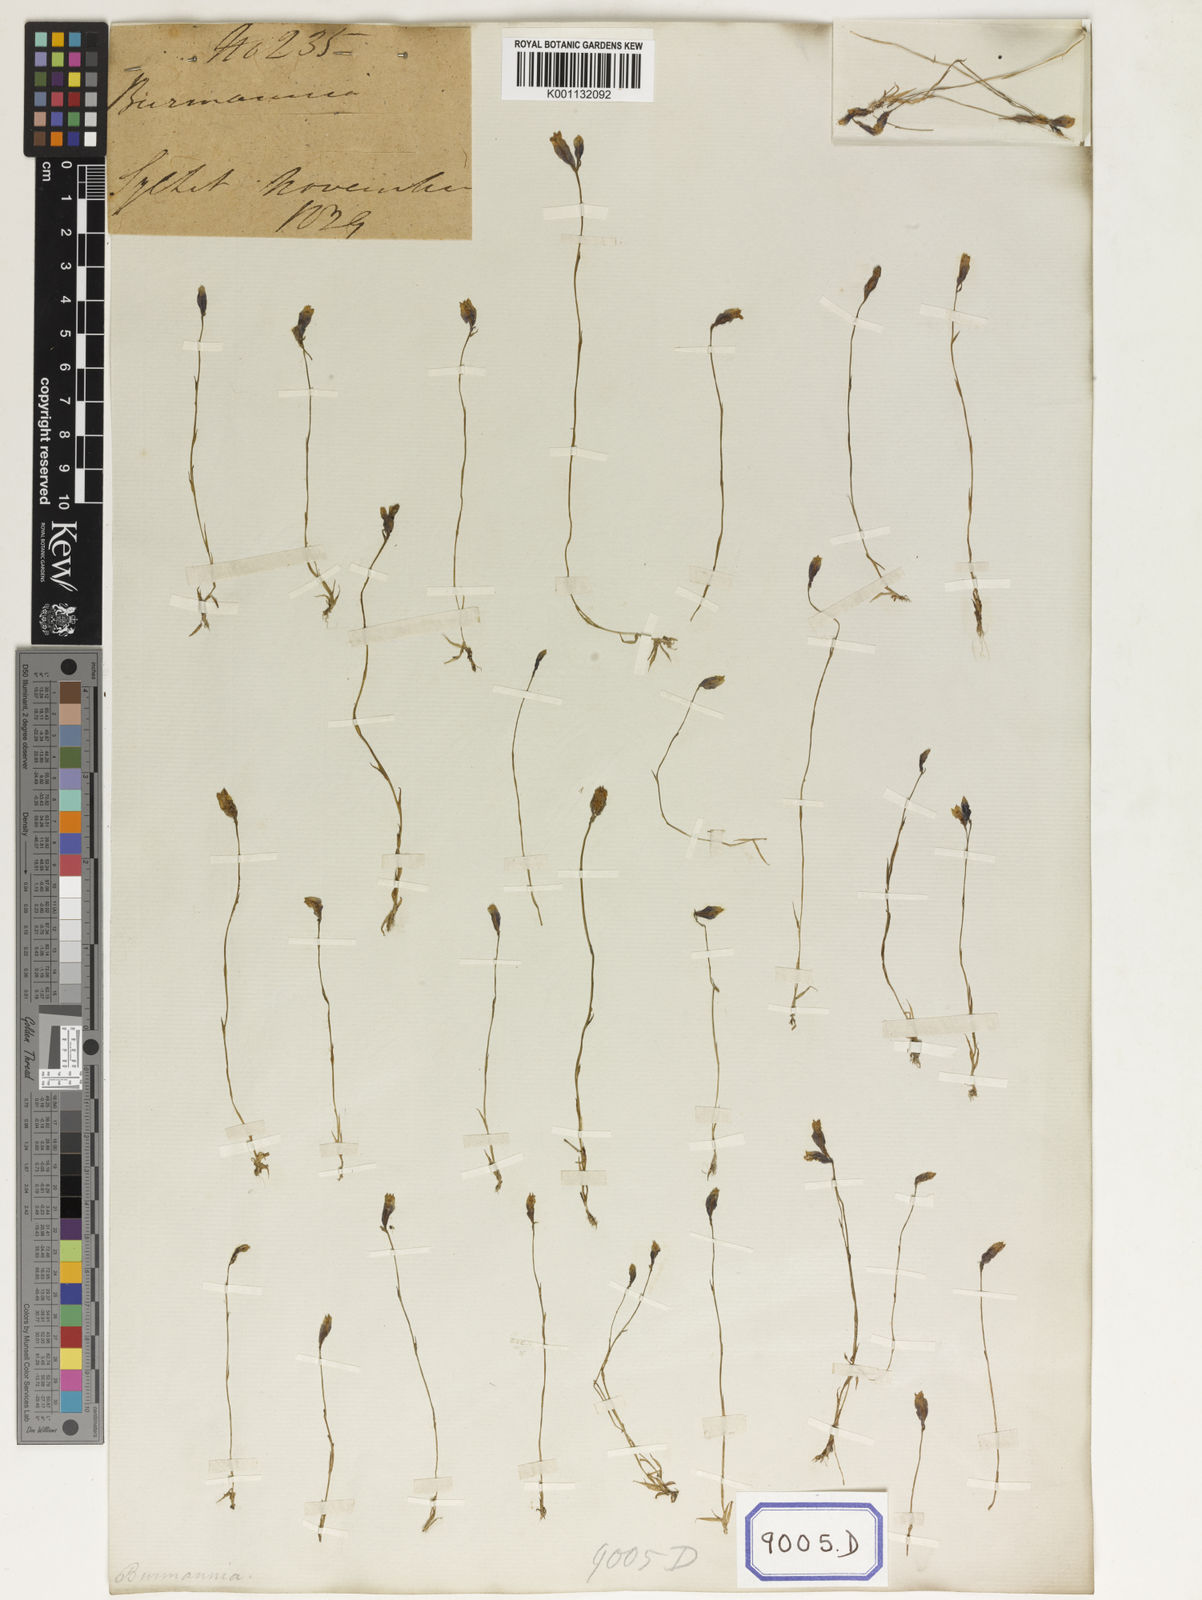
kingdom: Plantae
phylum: Tracheophyta
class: Liliopsida
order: Dioscoreales
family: Burmanniaceae
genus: Burmannia
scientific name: Burmannia
